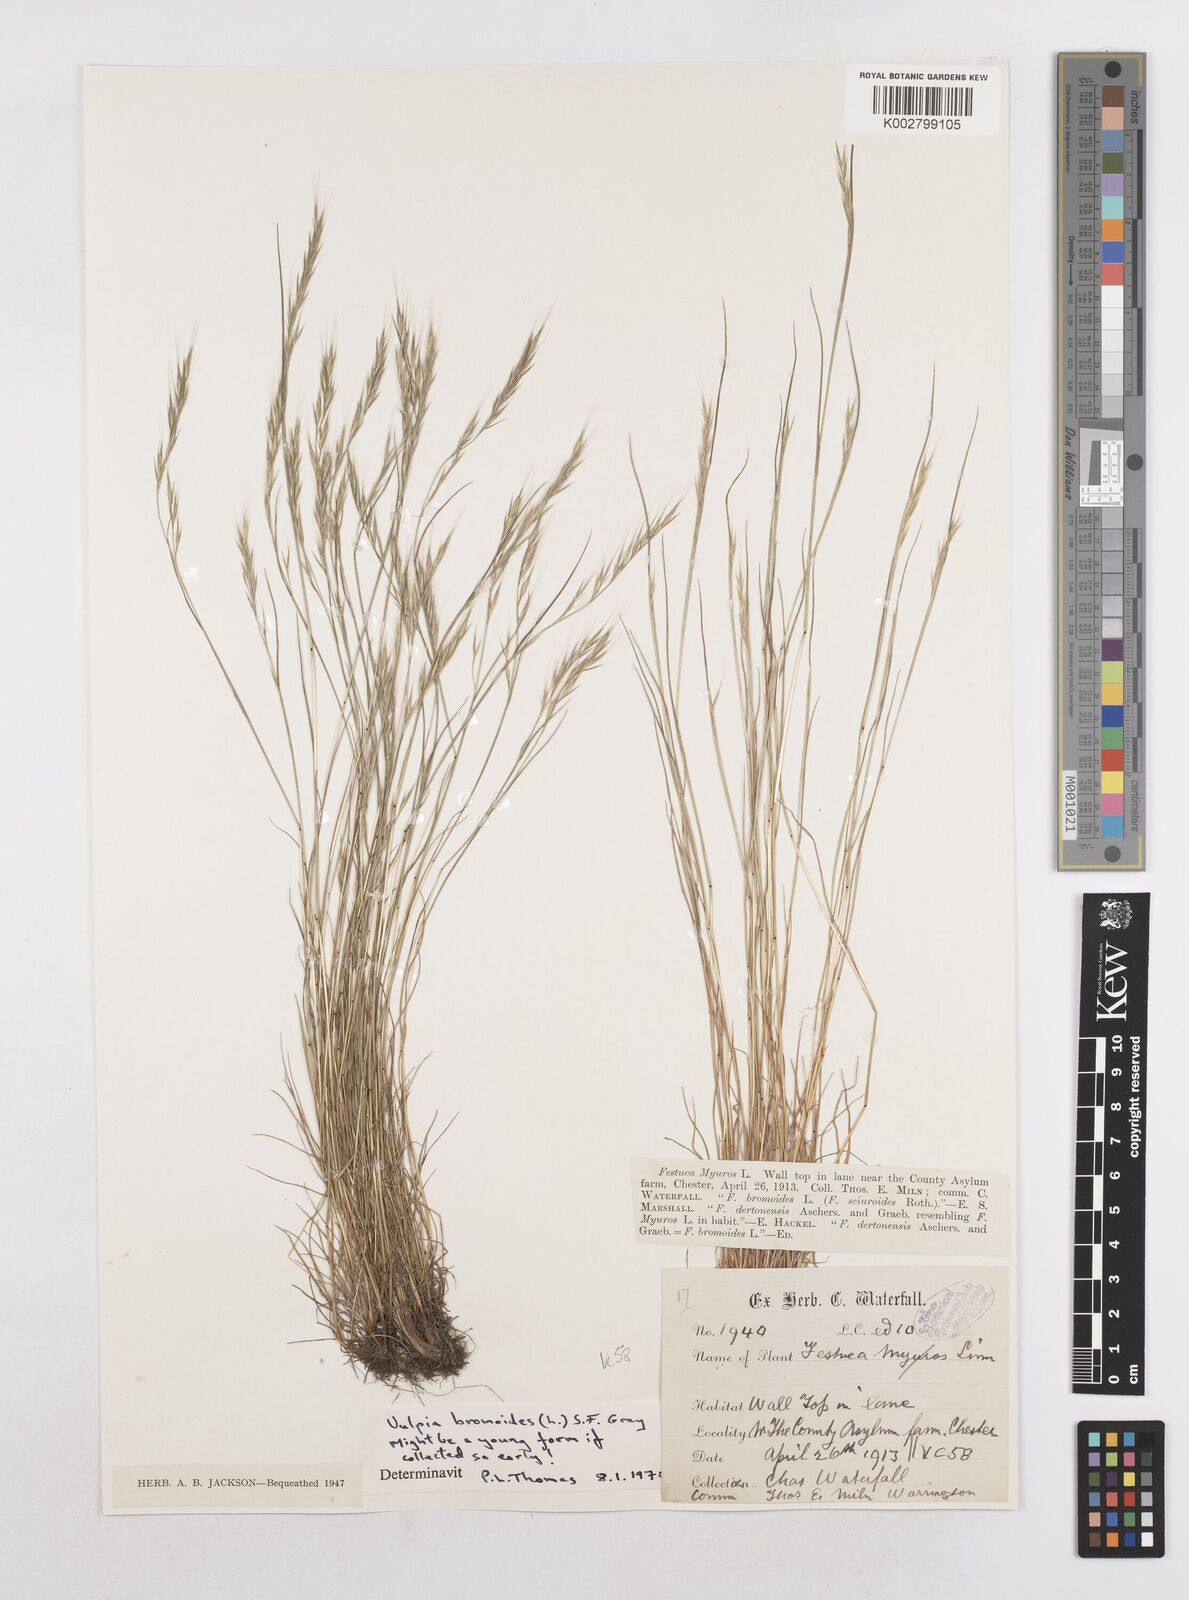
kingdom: Plantae
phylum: Tracheophyta
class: Liliopsida
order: Poales
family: Poaceae
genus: Festuca
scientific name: Festuca bromoides
